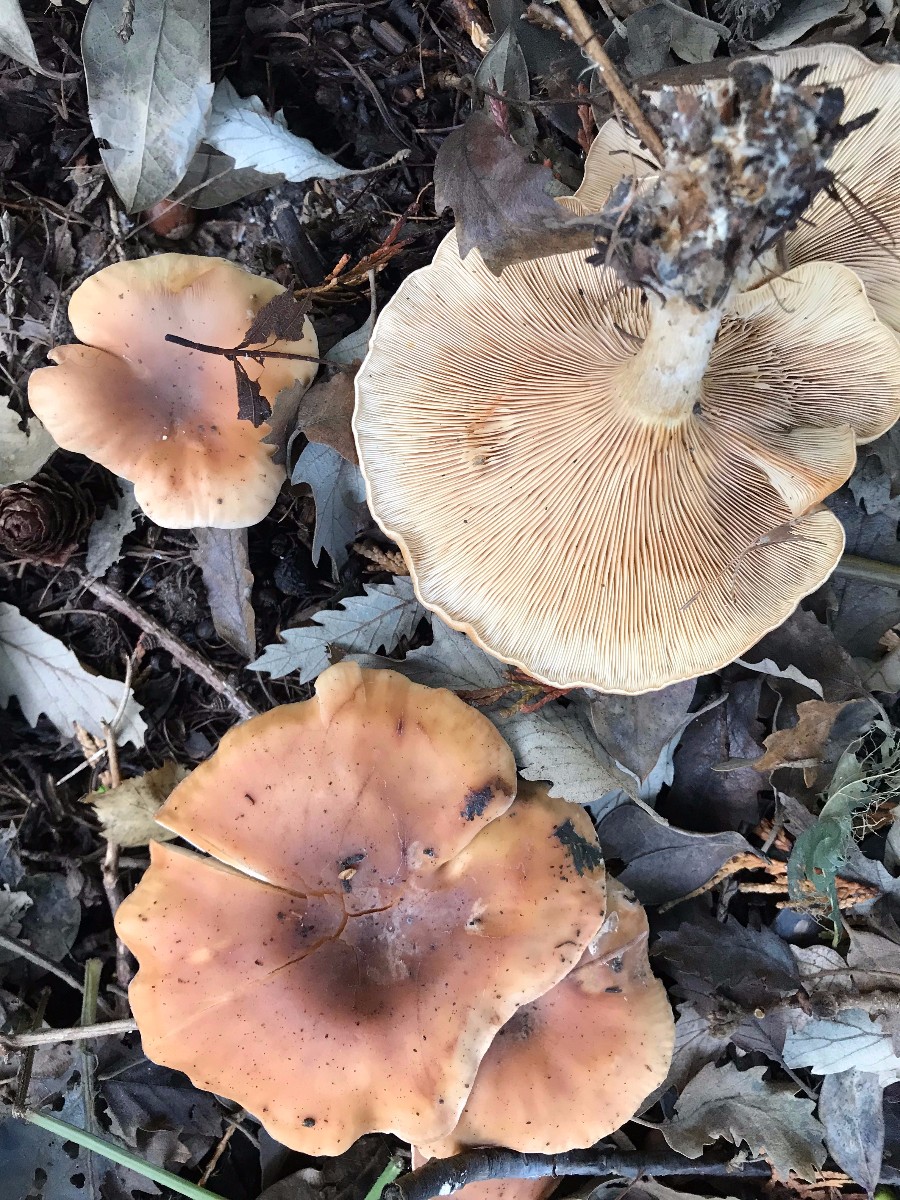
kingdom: Fungi
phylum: Basidiomycota
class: Agaricomycetes
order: Agaricales
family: Tricholomataceae
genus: Paralepista
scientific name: Paralepista flaccida
